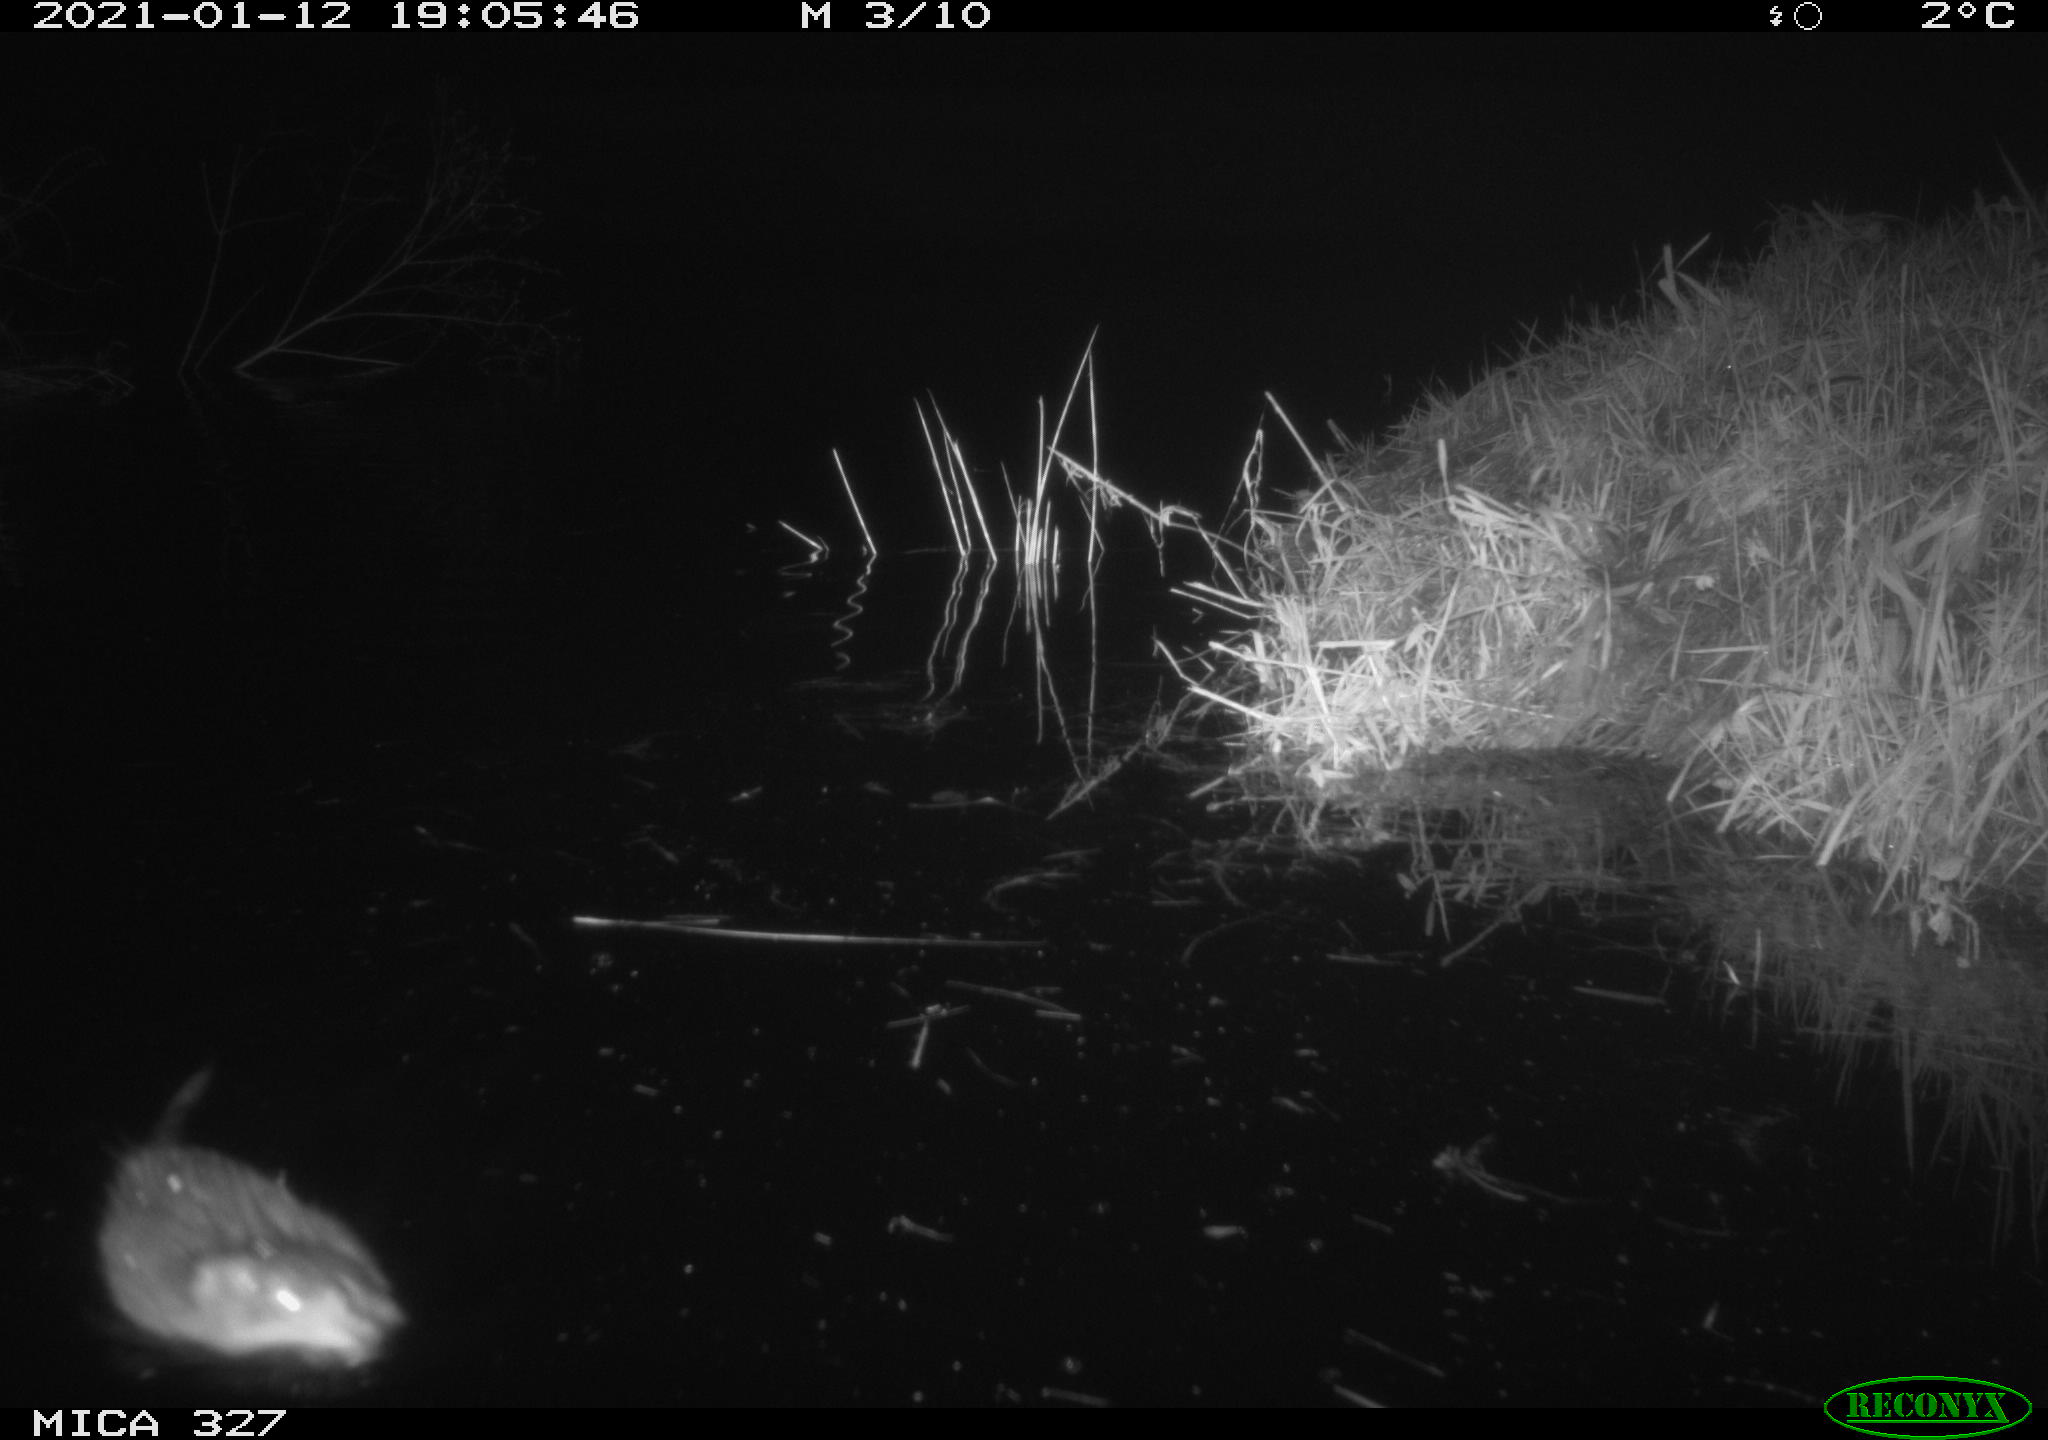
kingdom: Animalia
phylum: Chordata
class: Mammalia
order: Rodentia
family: Cricetidae
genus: Ondatra
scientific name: Ondatra zibethicus
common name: Muskrat
